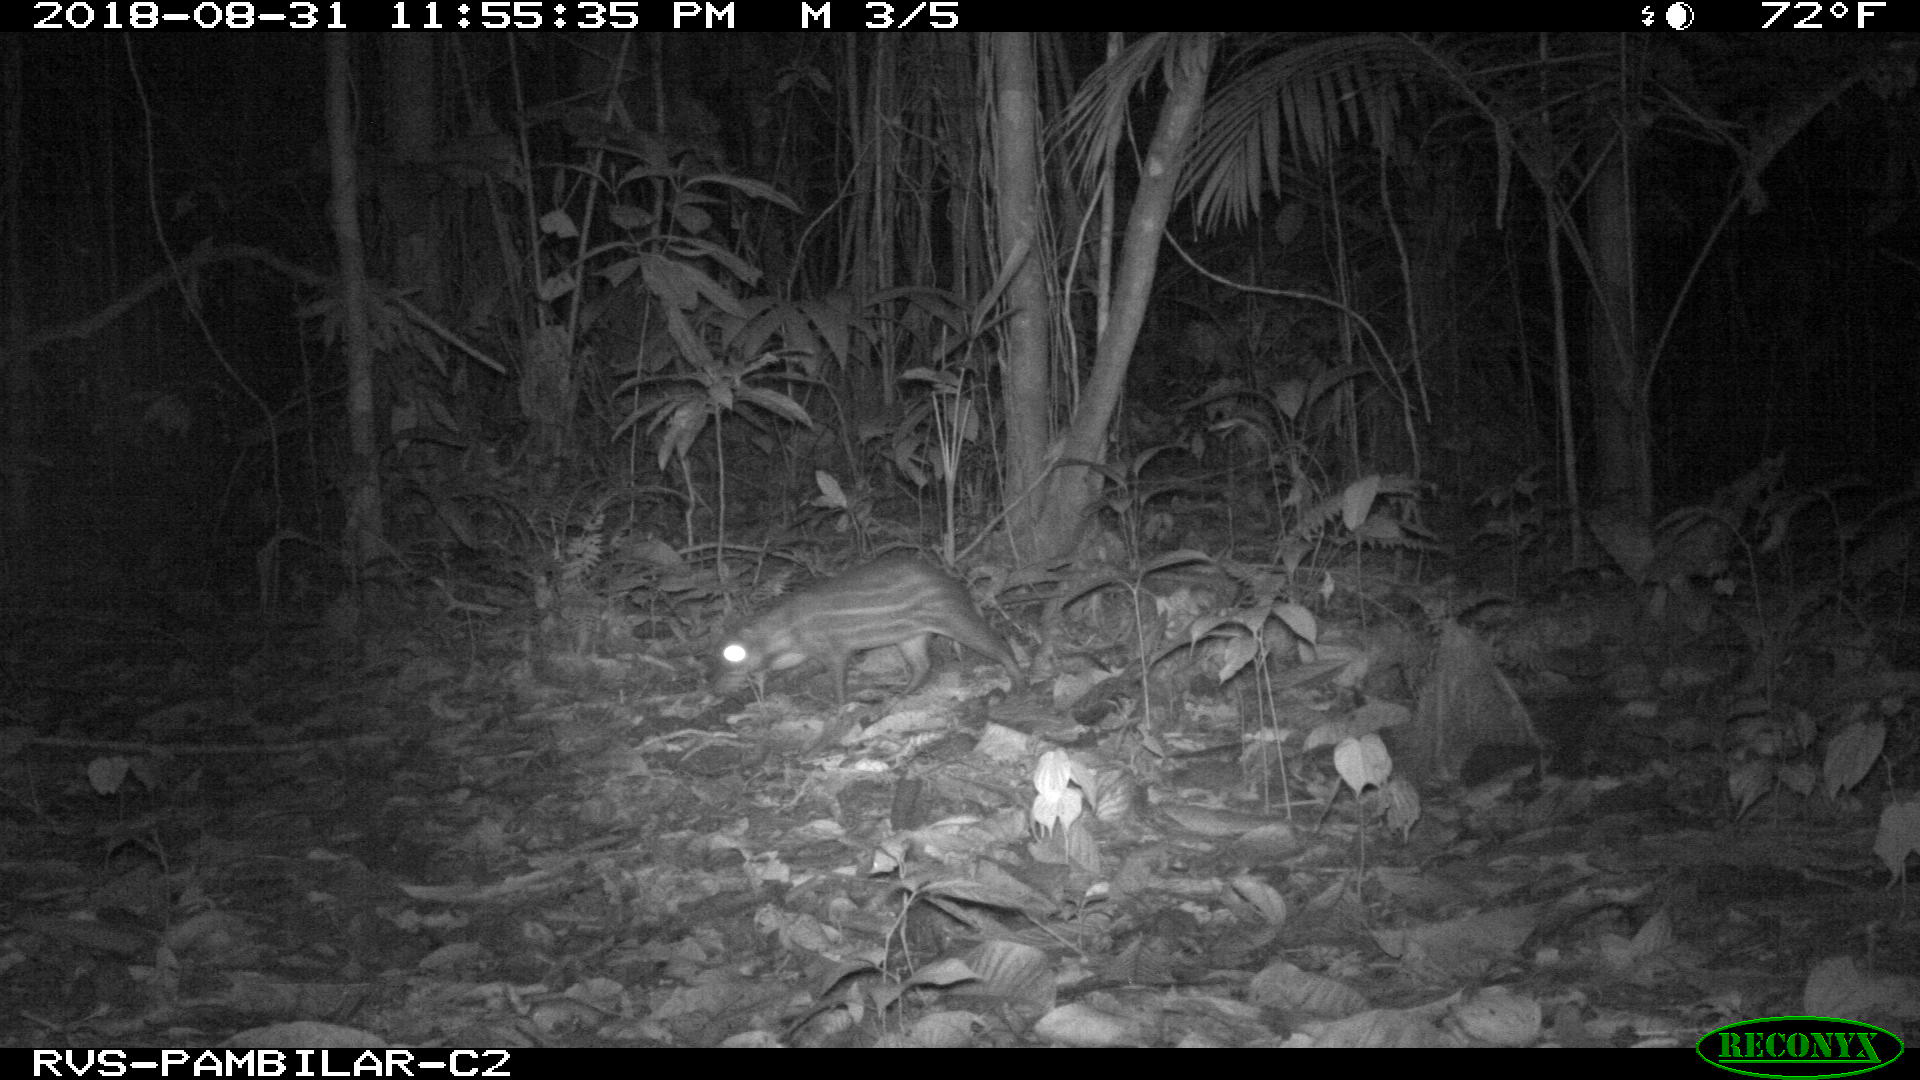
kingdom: Animalia
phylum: Chordata
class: Mammalia
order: Rodentia
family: Cuniculidae
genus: Cuniculus
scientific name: Cuniculus paca
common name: Lowland paca
